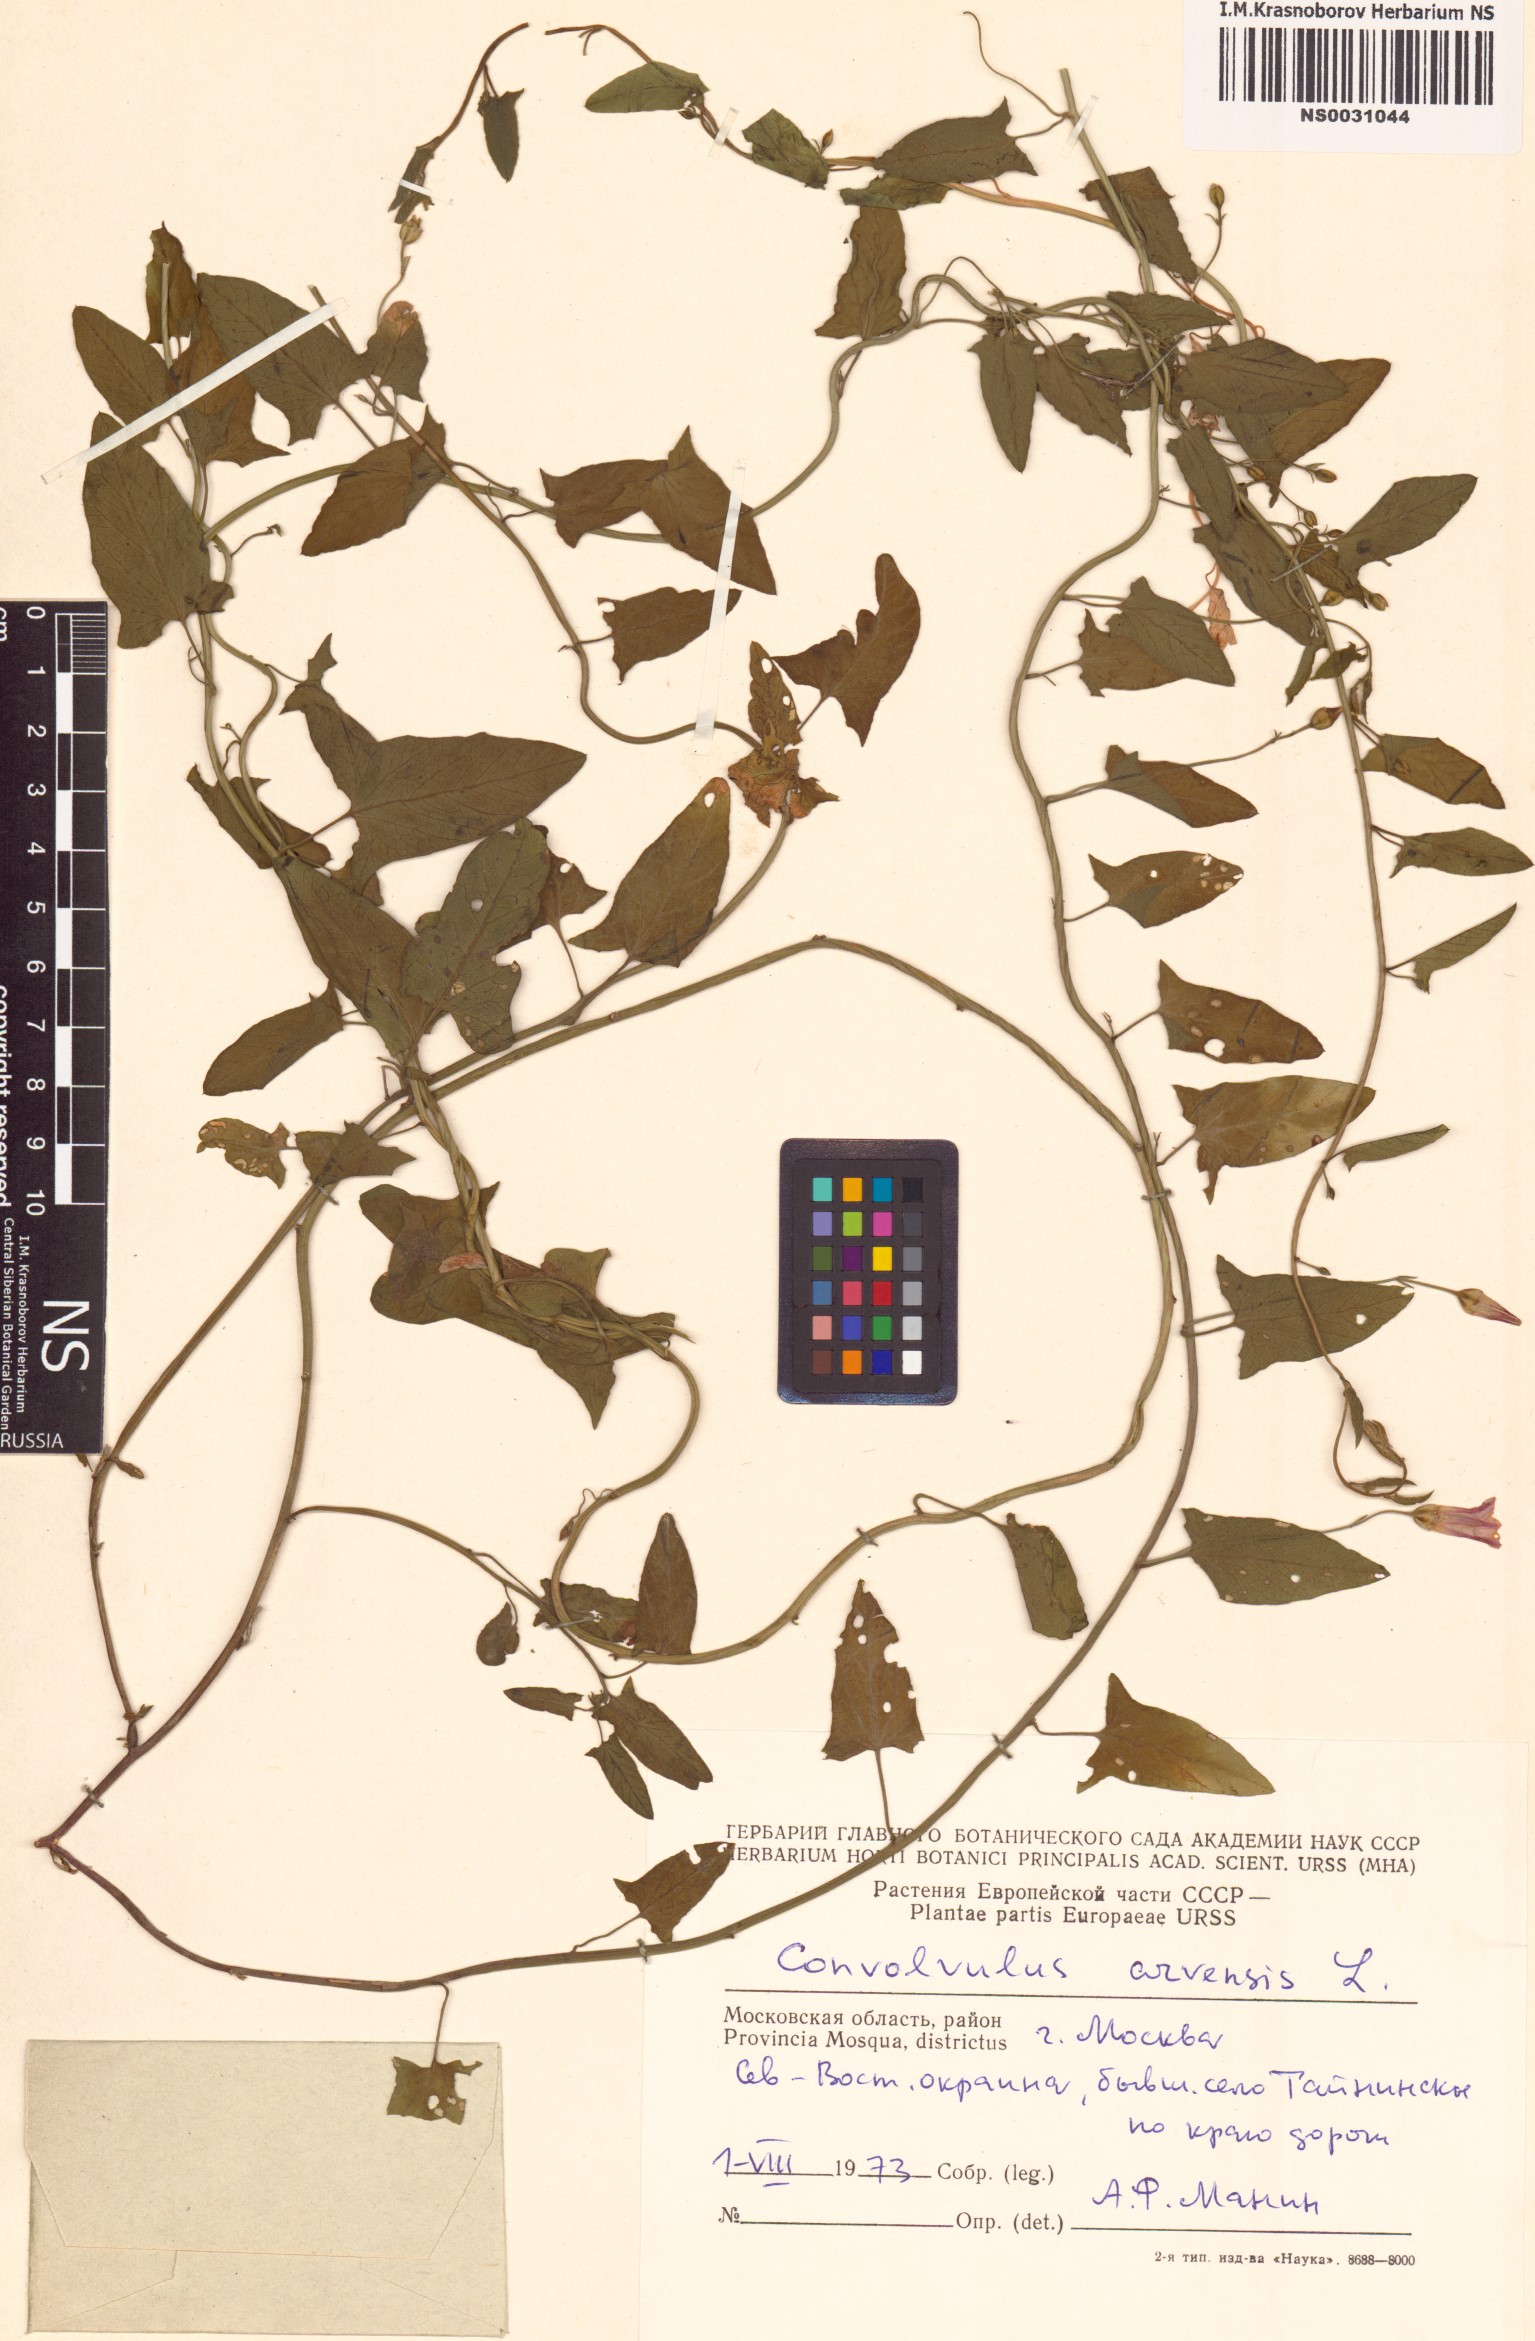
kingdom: Plantae
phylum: Tracheophyta
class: Magnoliopsida
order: Solanales
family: Convolvulaceae
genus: Convolvulus
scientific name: Convolvulus arvensis
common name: Field bindweed
